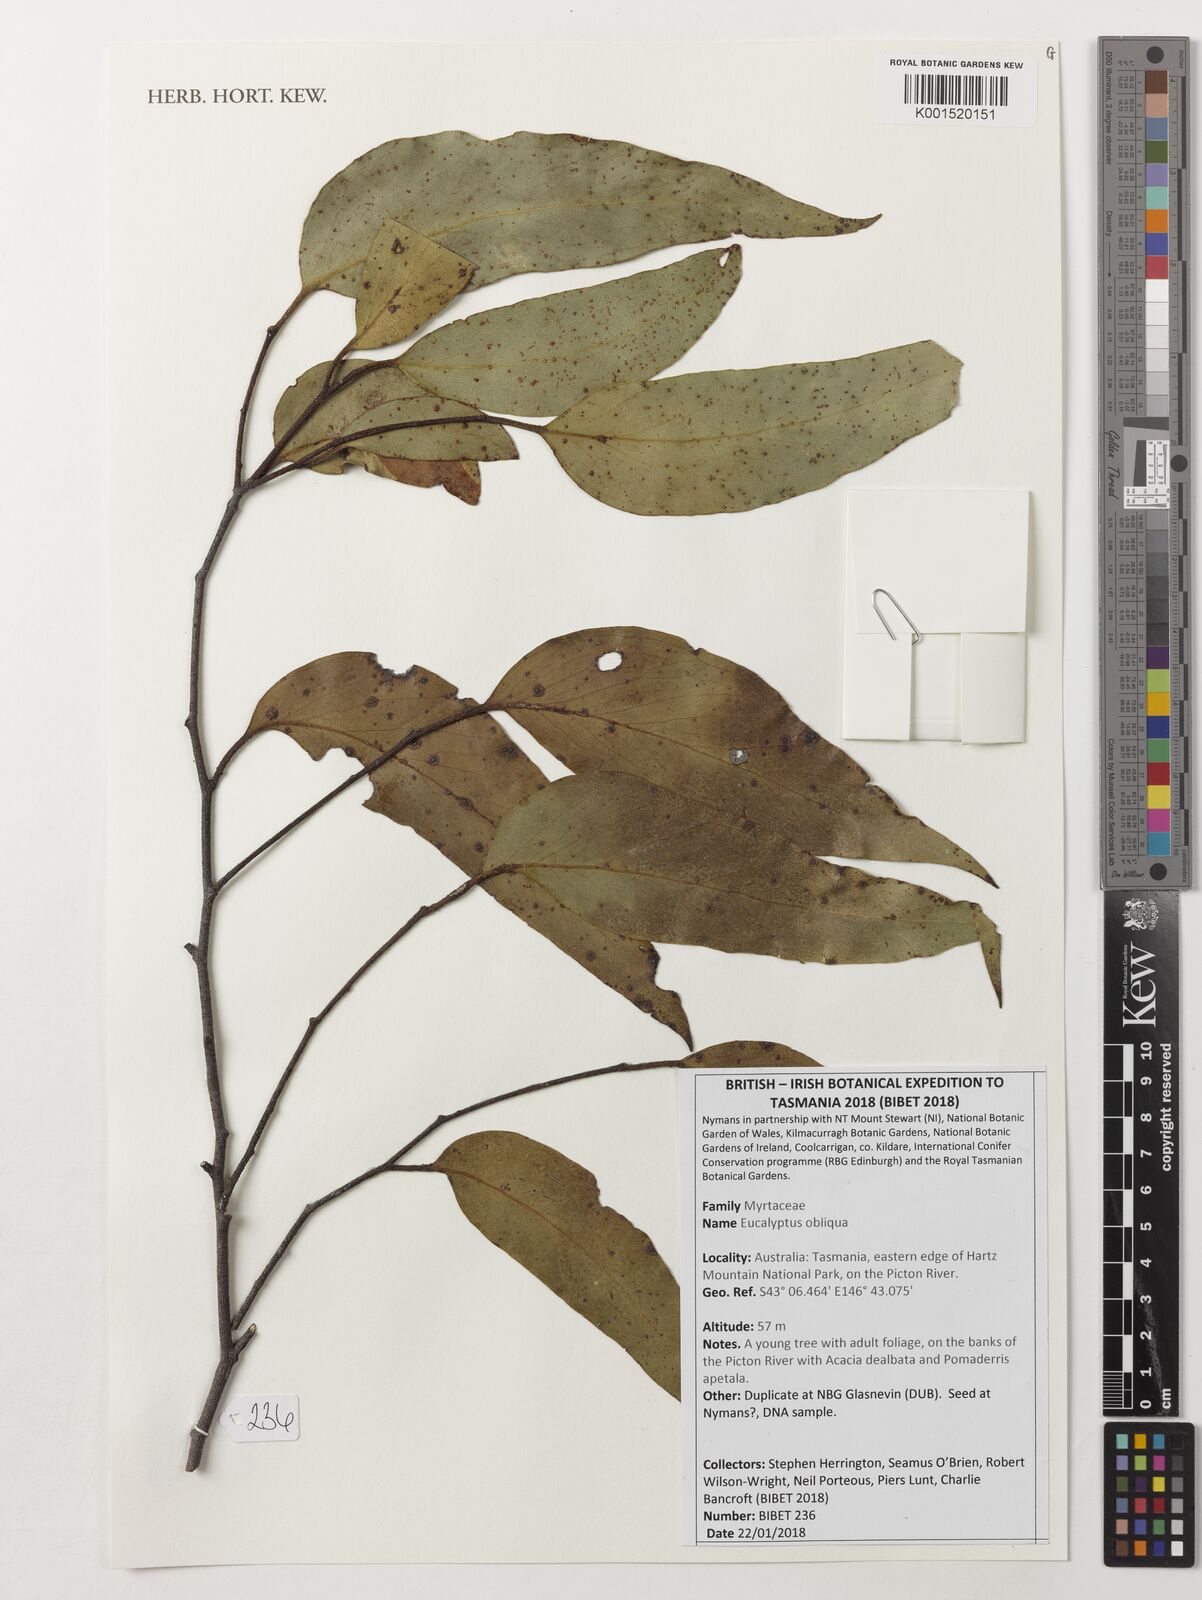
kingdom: Plantae
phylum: Tracheophyta
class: Magnoliopsida
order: Myrtales
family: Myrtaceae
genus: Eucalyptus
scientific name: Eucalyptus
